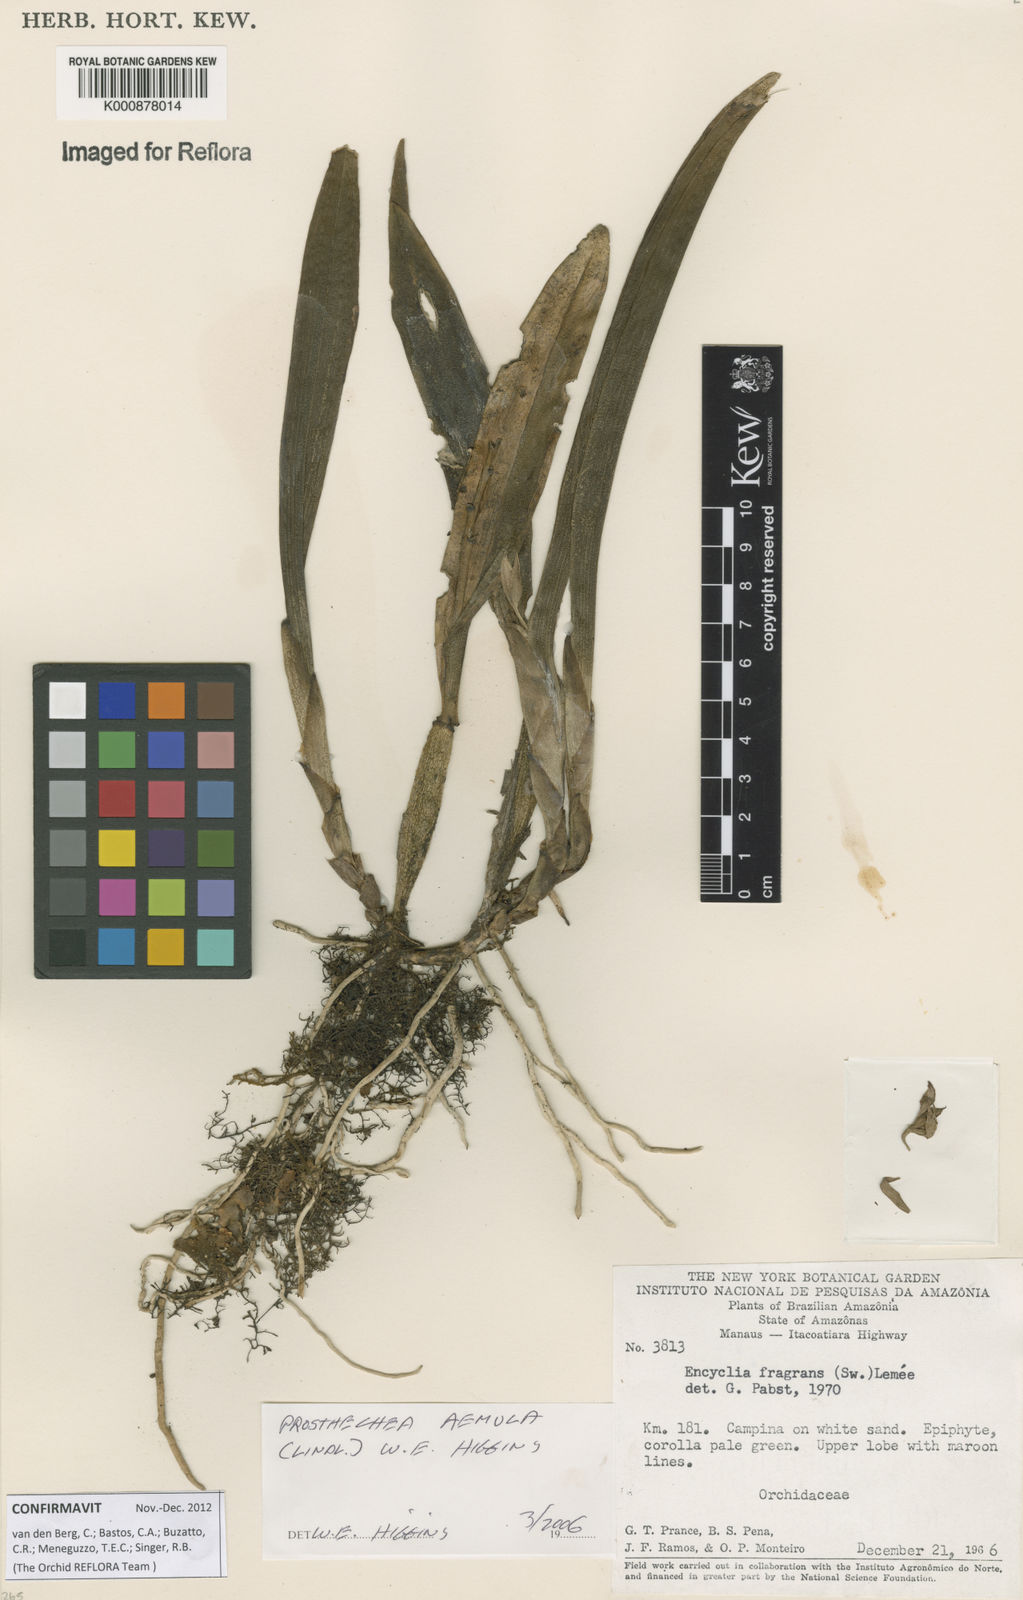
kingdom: Plantae
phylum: Tracheophyta
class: Liliopsida
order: Asparagales
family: Orchidaceae
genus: Prosthechea
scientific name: Prosthechea aemula
